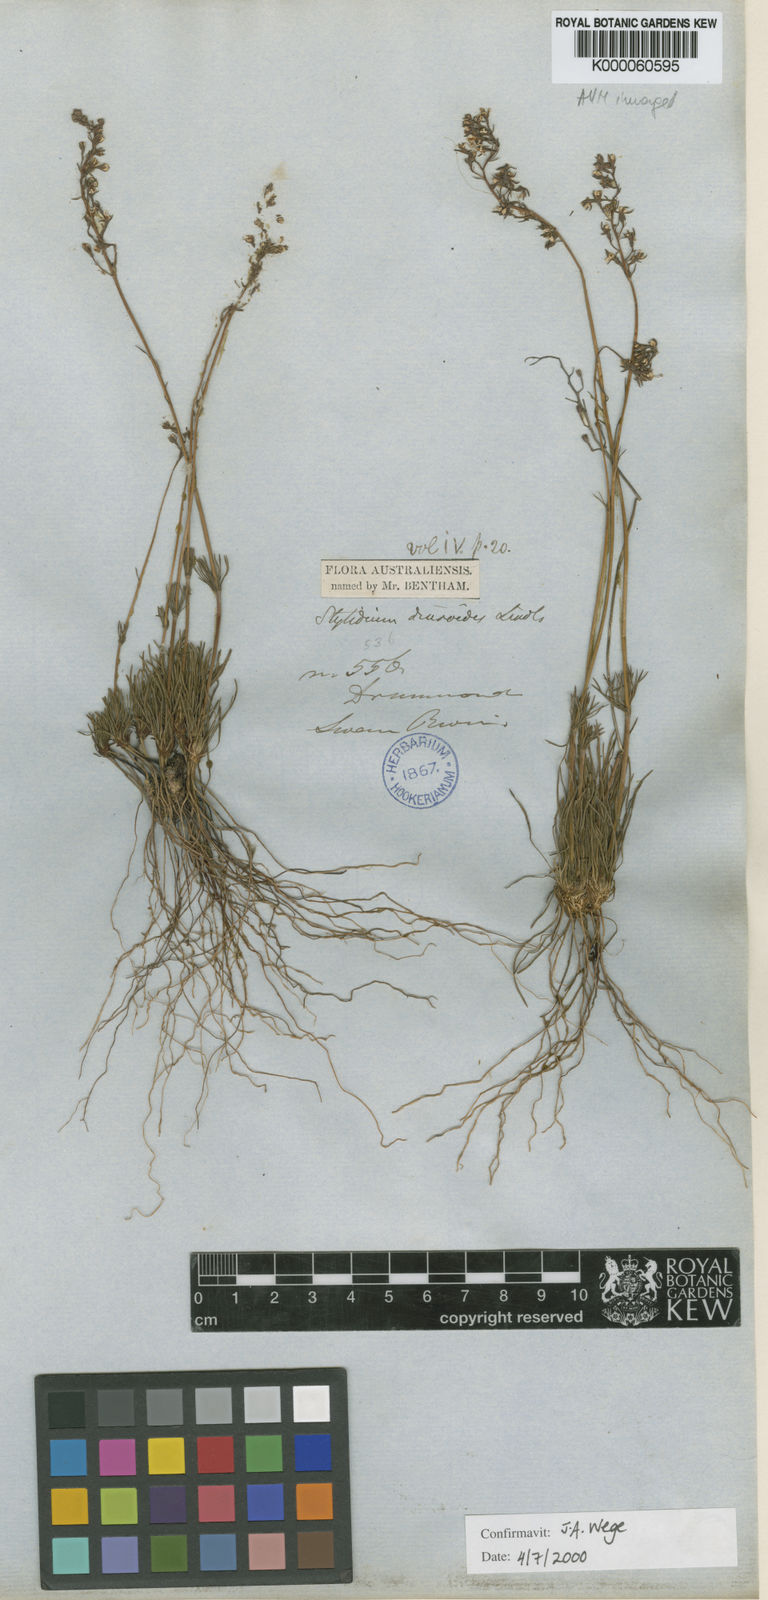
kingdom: Plantae
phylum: Tracheophyta
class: Magnoliopsida
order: Asterales
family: Stylidiaceae
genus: Stylidium
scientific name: Stylidium diuroides
